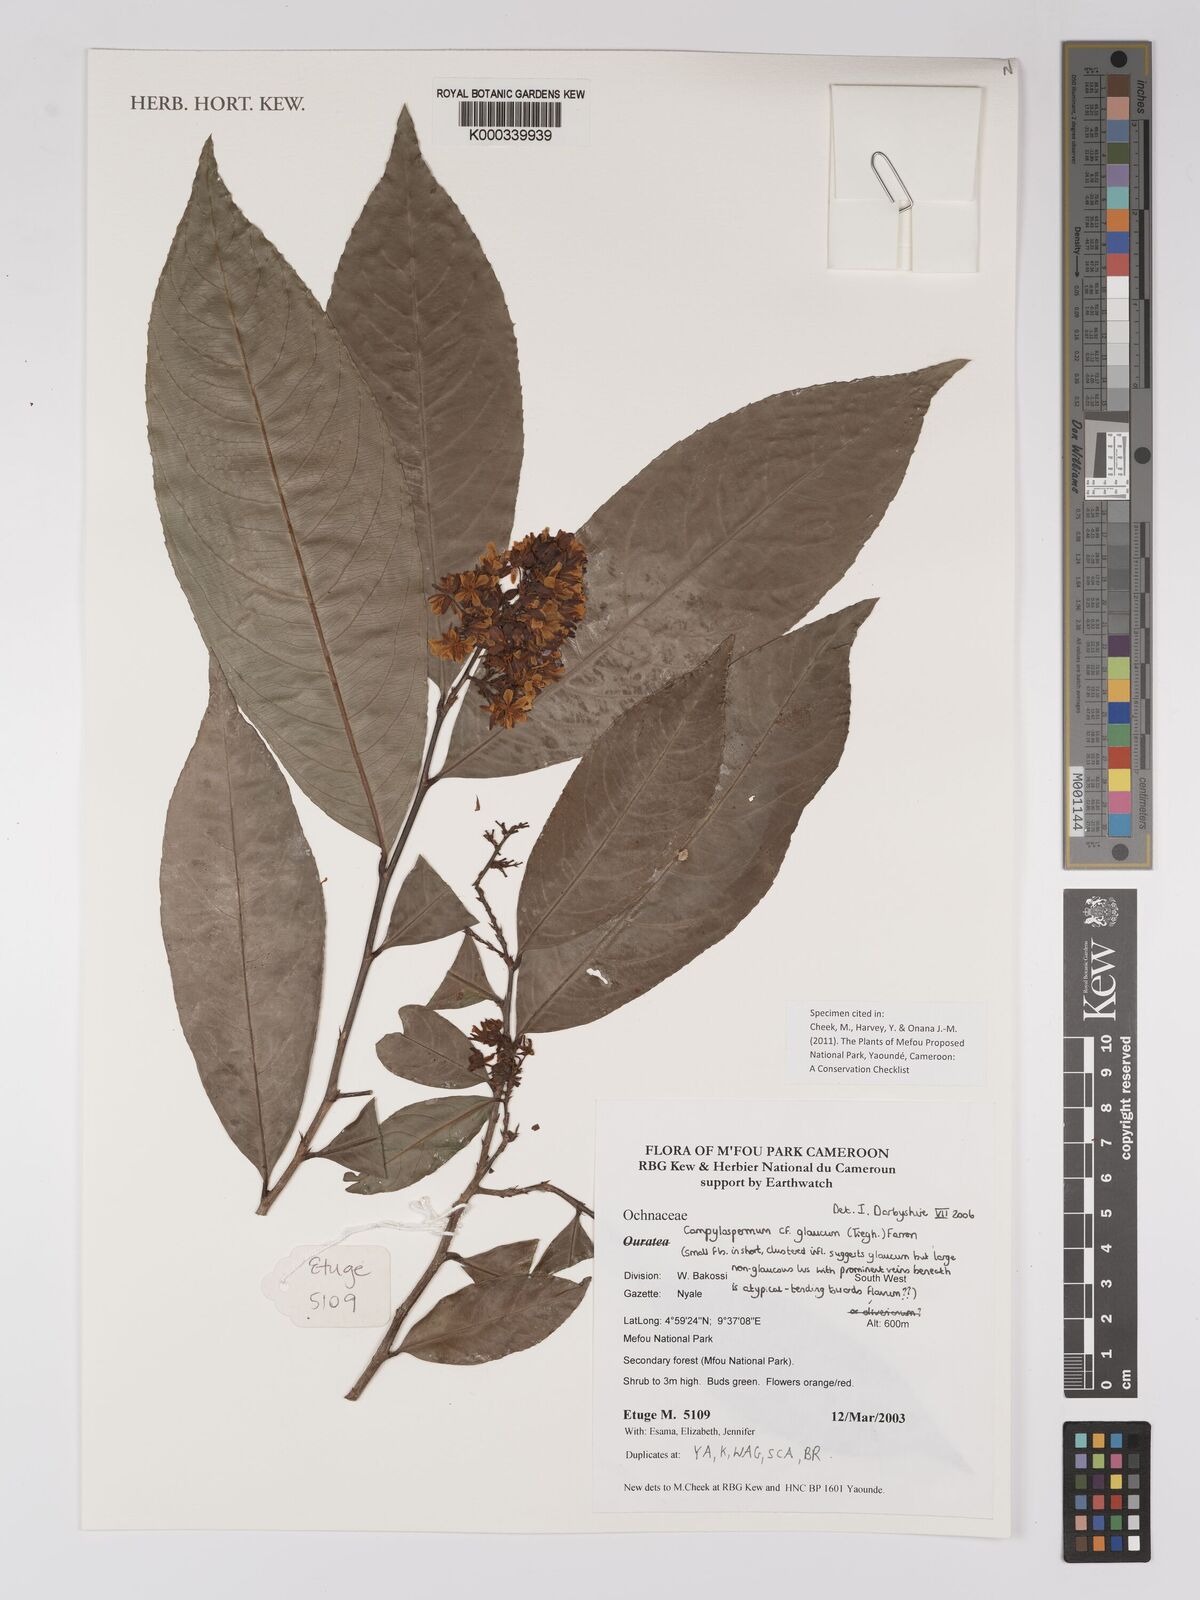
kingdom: Plantae
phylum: Tracheophyta
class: Magnoliopsida
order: Malpighiales
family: Ochnaceae
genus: Campylospermum
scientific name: Campylospermum glaucum
